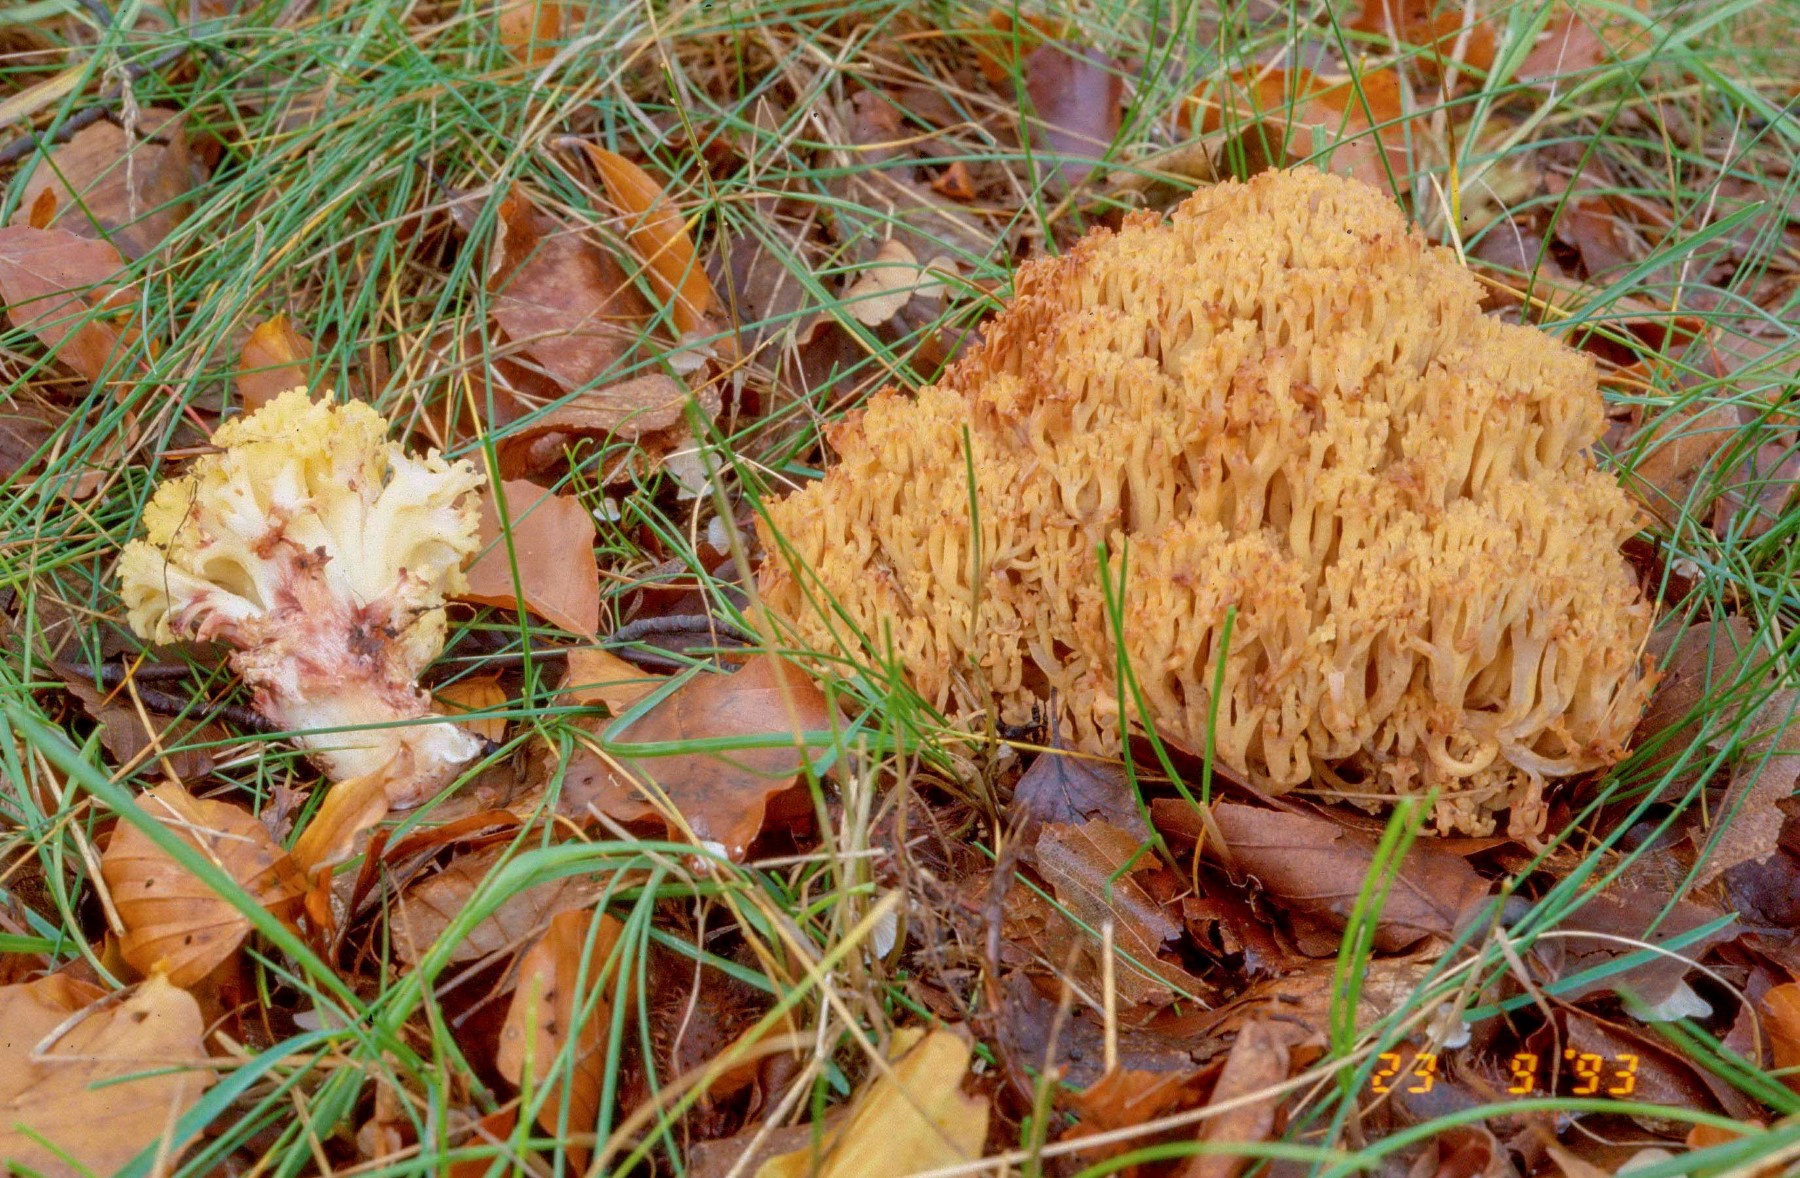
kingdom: Fungi
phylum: Basidiomycota
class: Agaricomycetes
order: Gomphales
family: Gomphaceae
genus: Ramaria
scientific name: Ramaria sanguinea
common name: blodplettet koralsvamp
